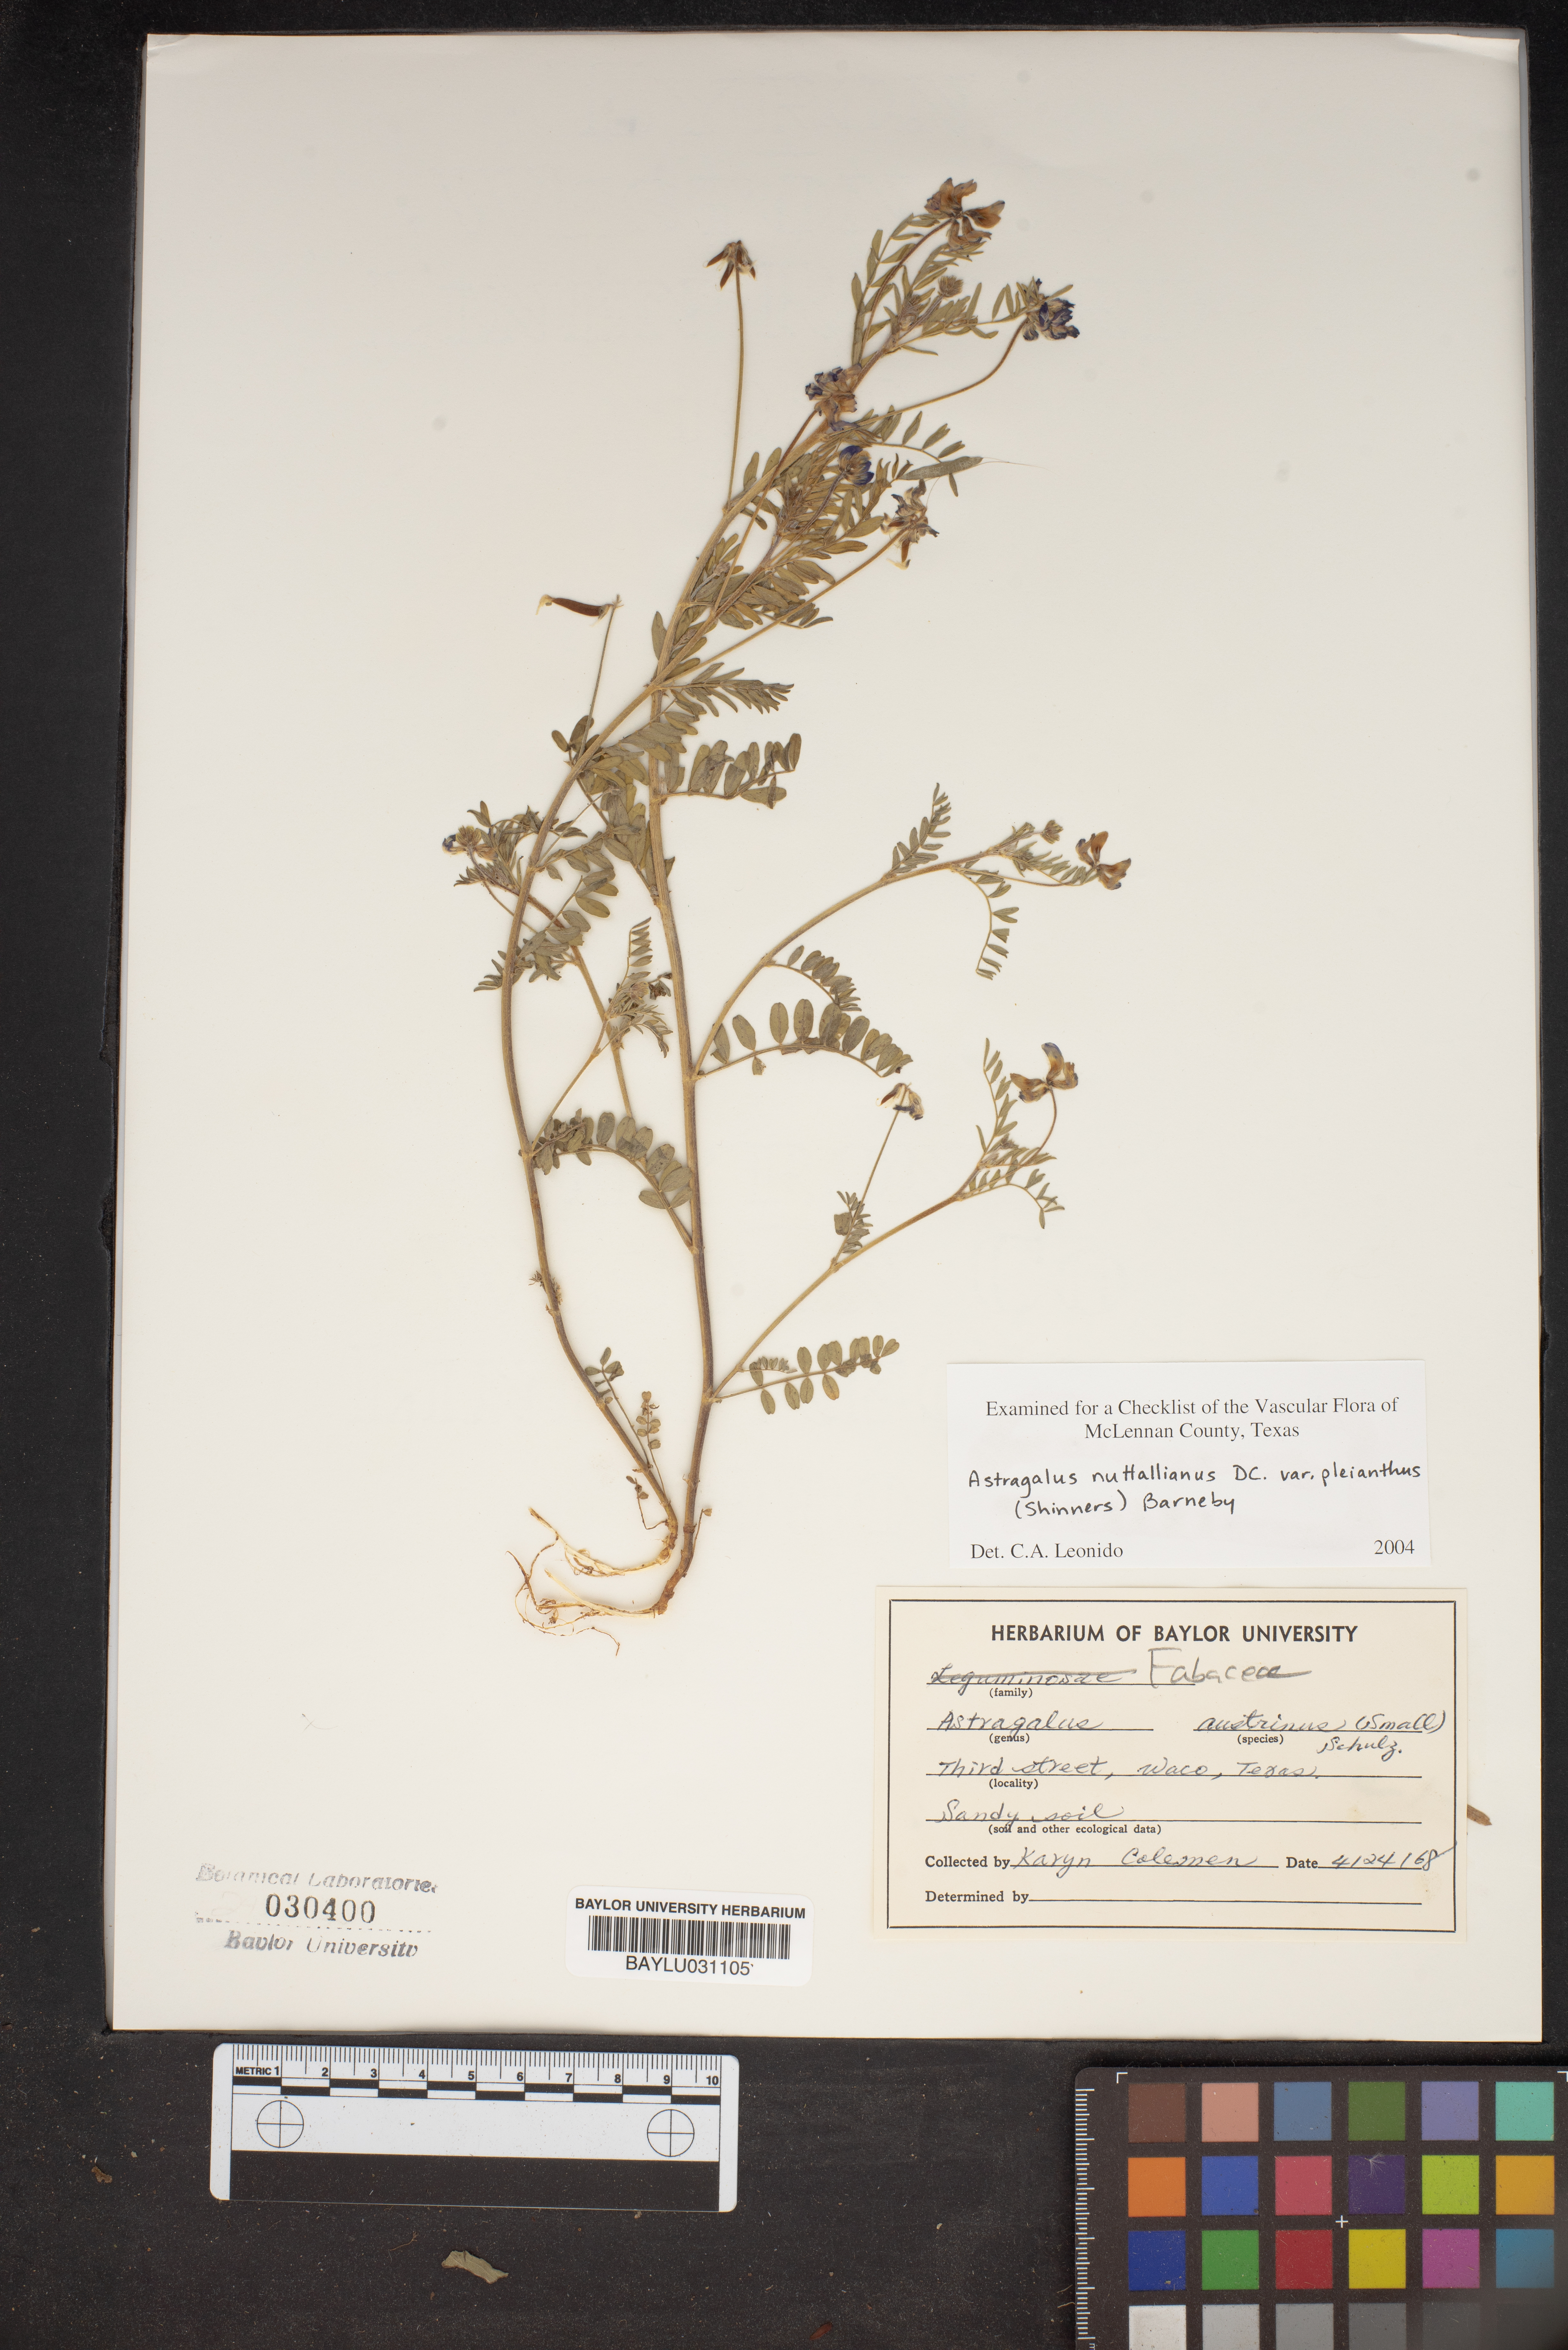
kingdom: Plantae
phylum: Tracheophyta
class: Magnoliopsida
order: Fabales
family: Fabaceae
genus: Astragalus
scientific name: Astragalus nuttallianus
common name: Smallflowered milkvetch
